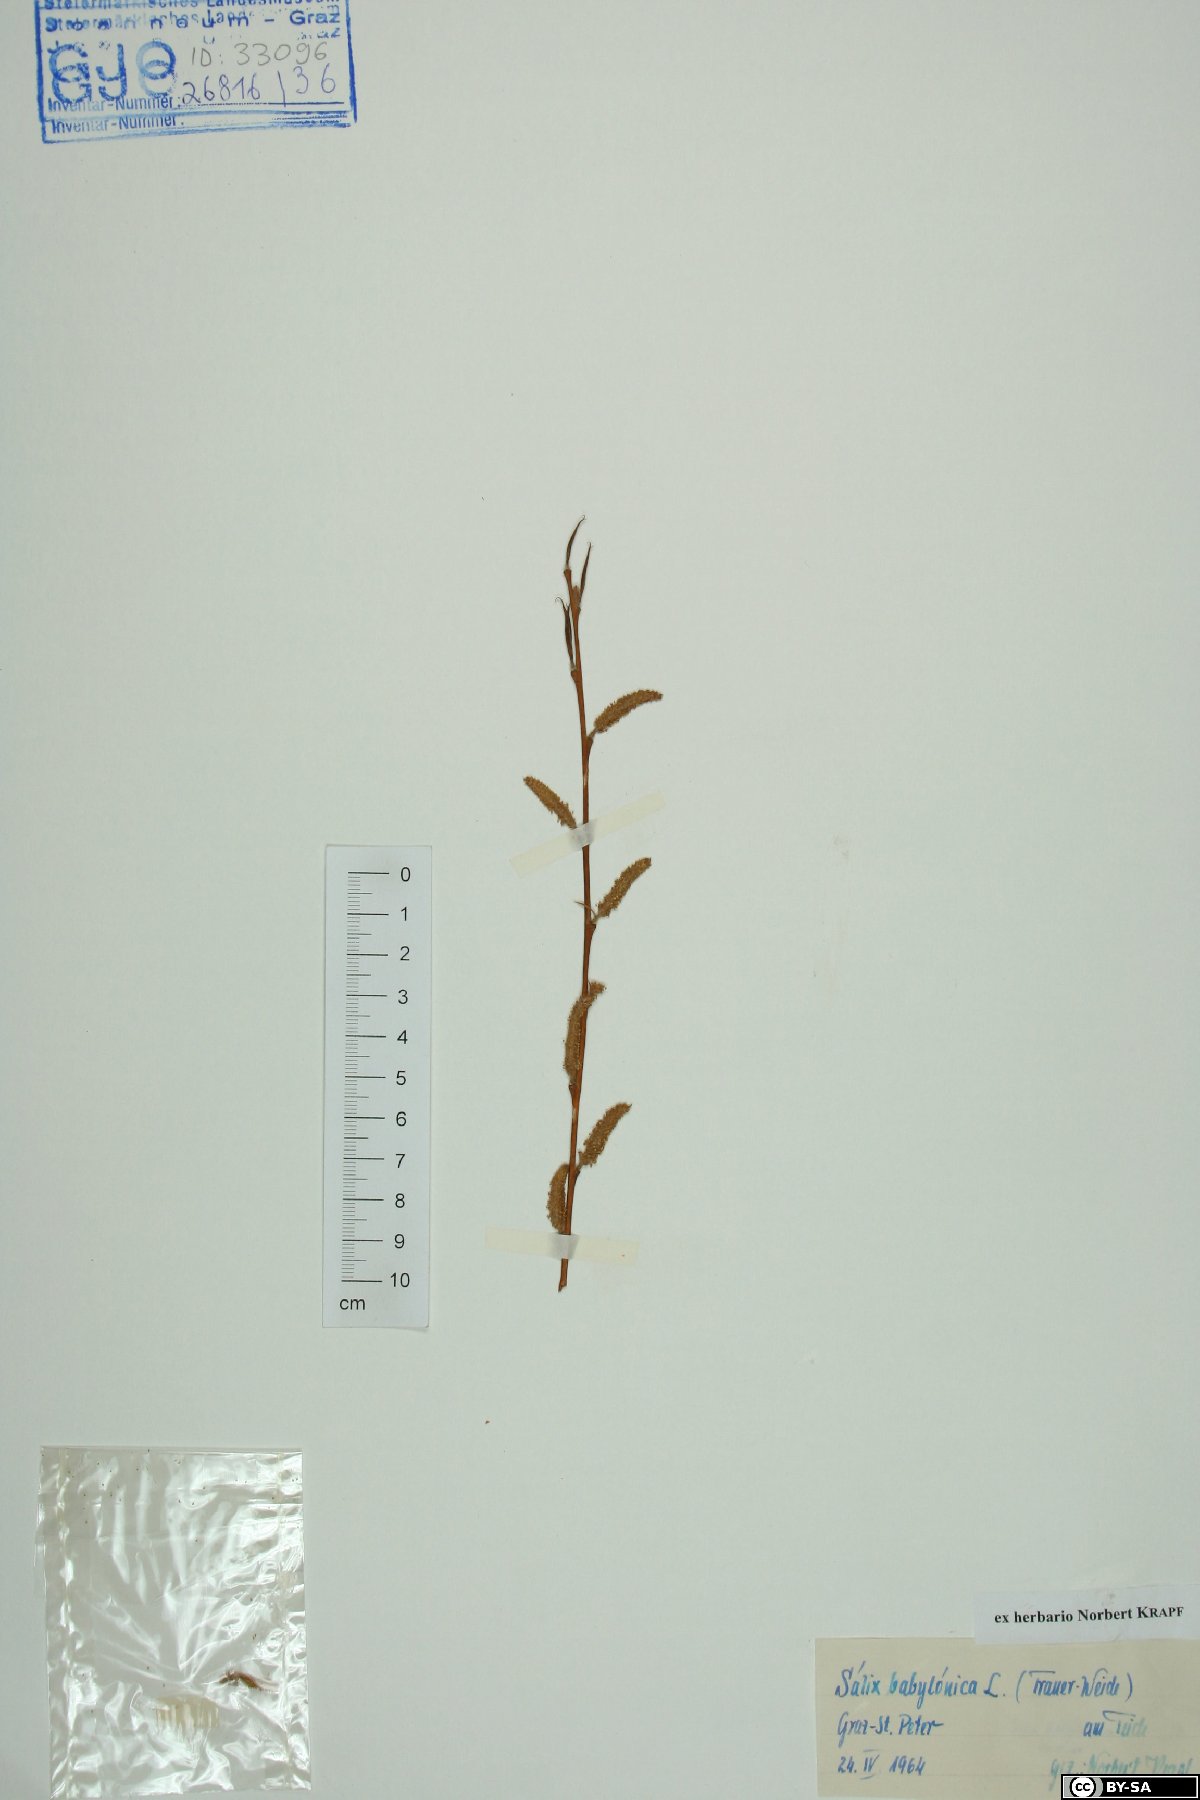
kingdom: Plantae
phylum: Tracheophyta
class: Magnoliopsida
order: Malpighiales
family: Salicaceae
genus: Salix
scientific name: Salix babylonica
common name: Weeping willow
